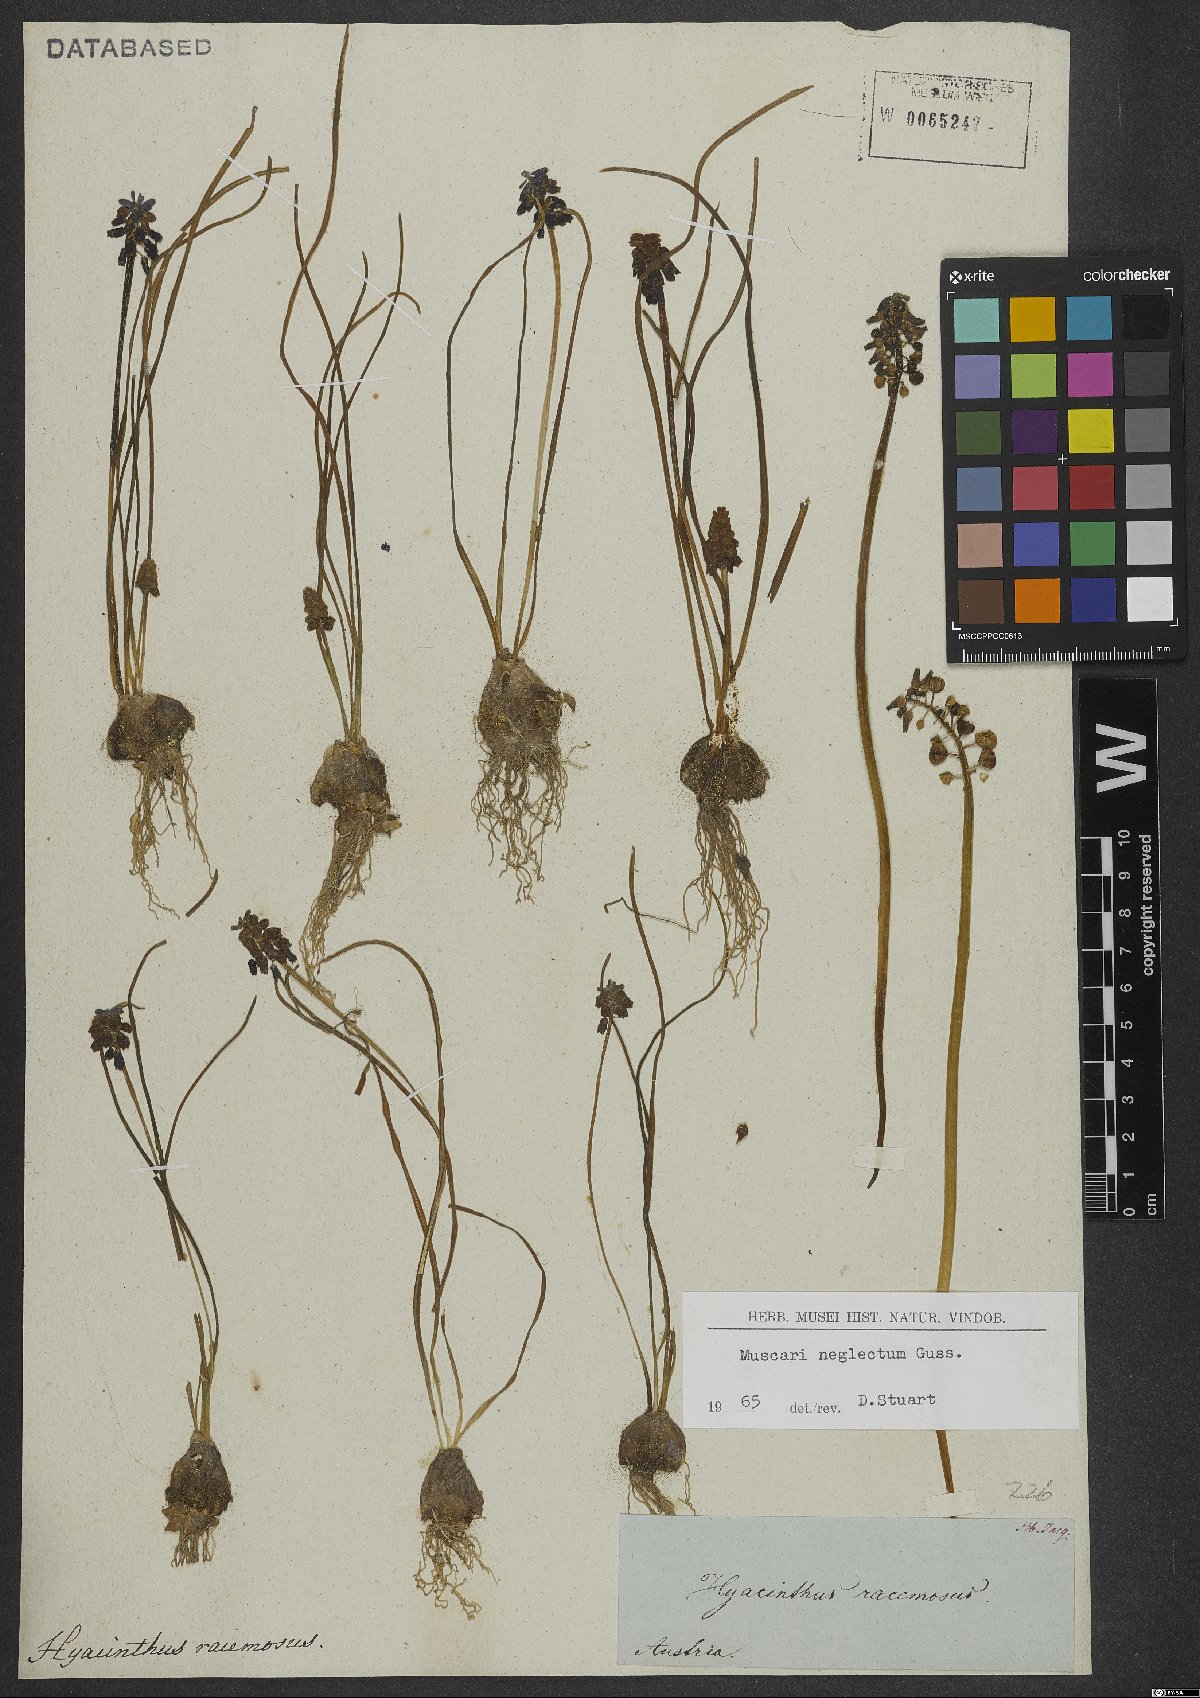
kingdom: Plantae
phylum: Tracheophyta
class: Liliopsida
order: Asparagales
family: Asparagaceae
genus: Muscari
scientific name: Muscari neglectum
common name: Grape-hyacinth
